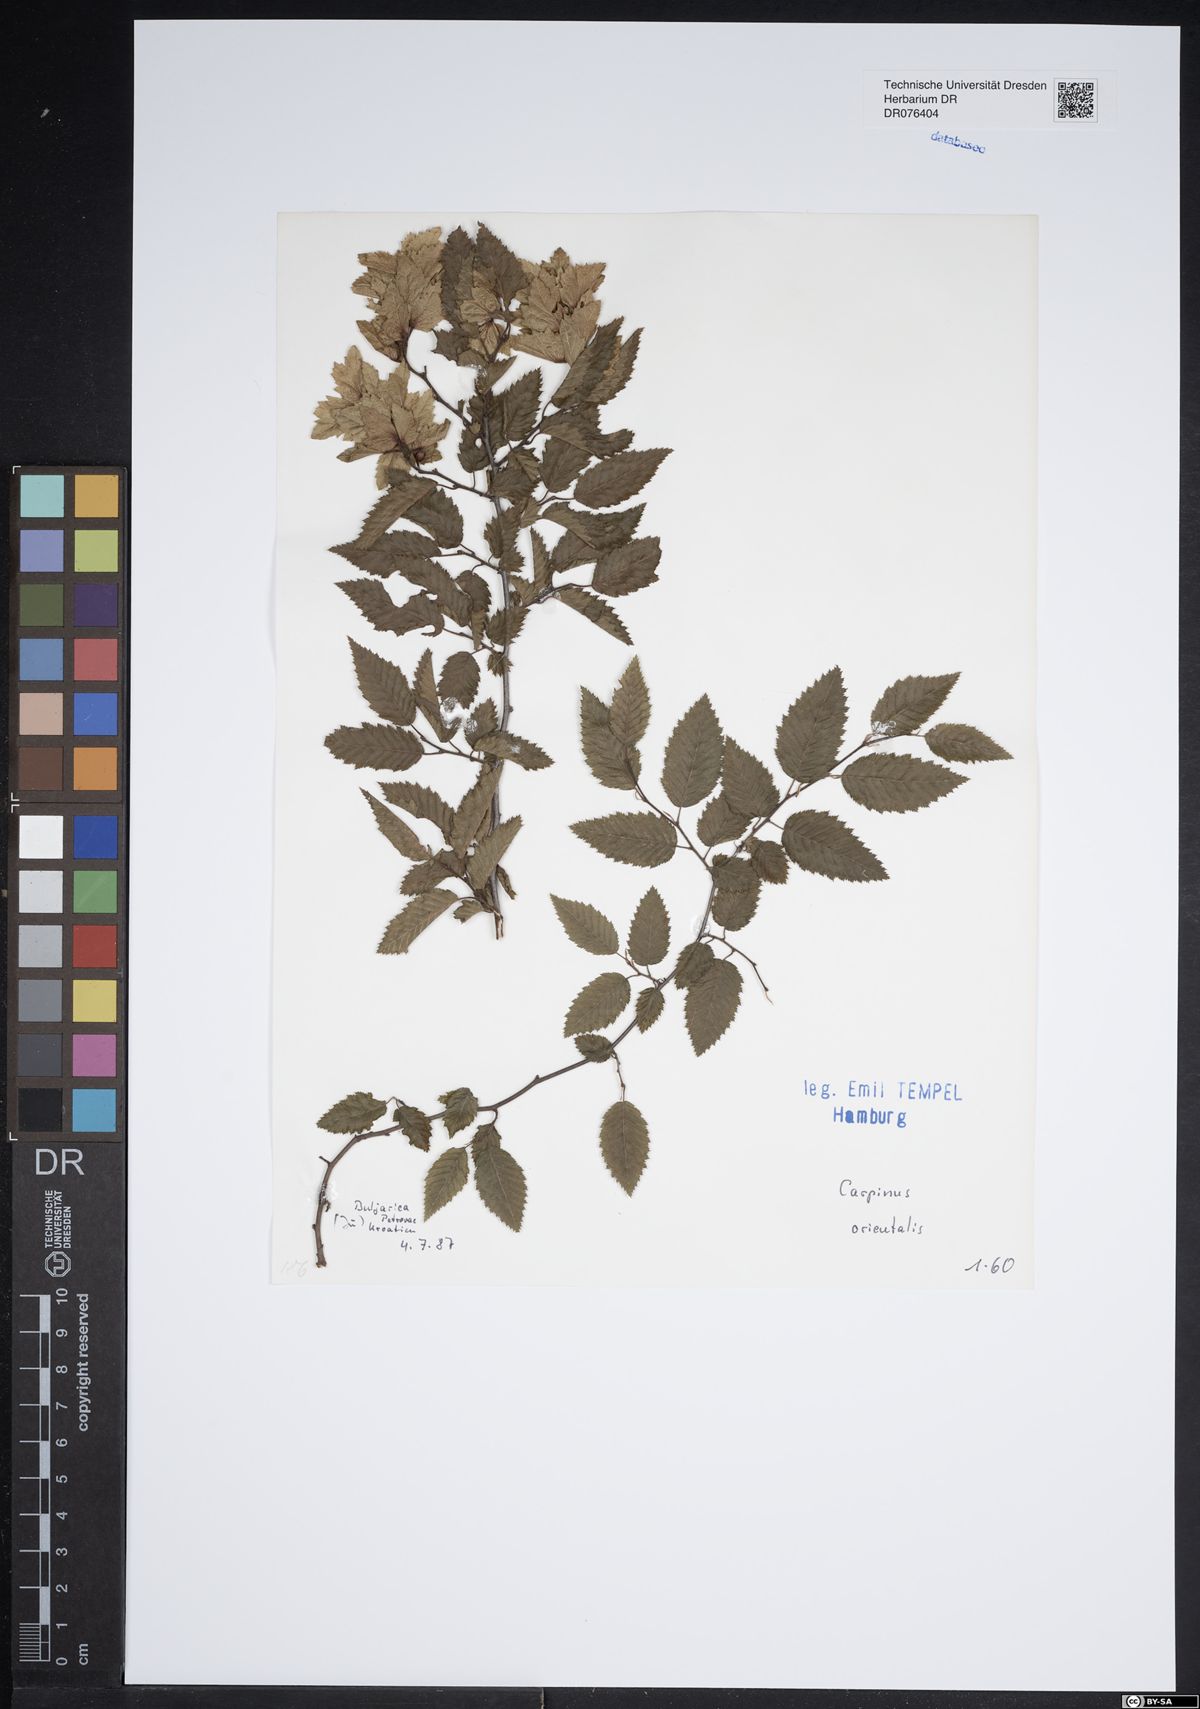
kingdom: Plantae
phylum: Tracheophyta
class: Magnoliopsida
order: Fagales
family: Betulaceae
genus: Carpinus
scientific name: Carpinus orientalis
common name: Eastern hornbeam
